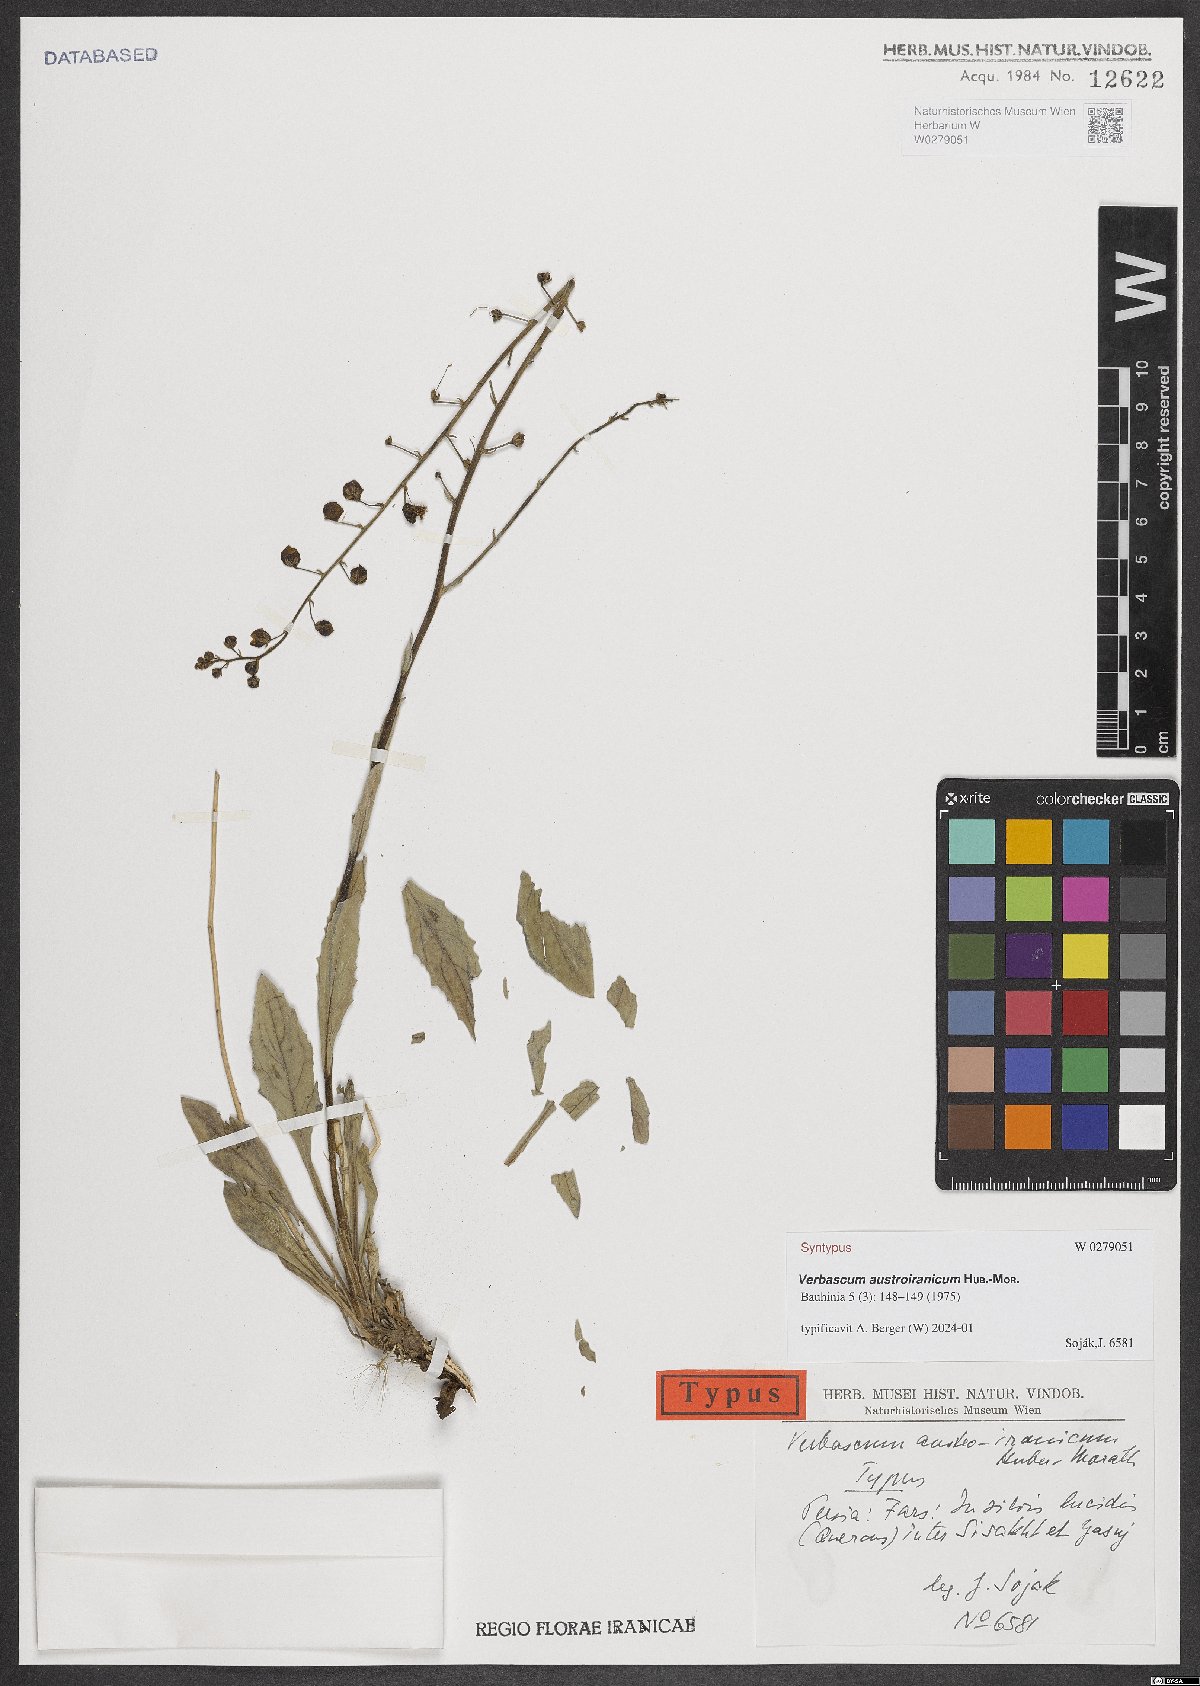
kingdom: Plantae
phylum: Tracheophyta
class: Magnoliopsida
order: Lamiales
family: Scrophulariaceae
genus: Verbascum
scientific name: Verbascum austroiranicum
